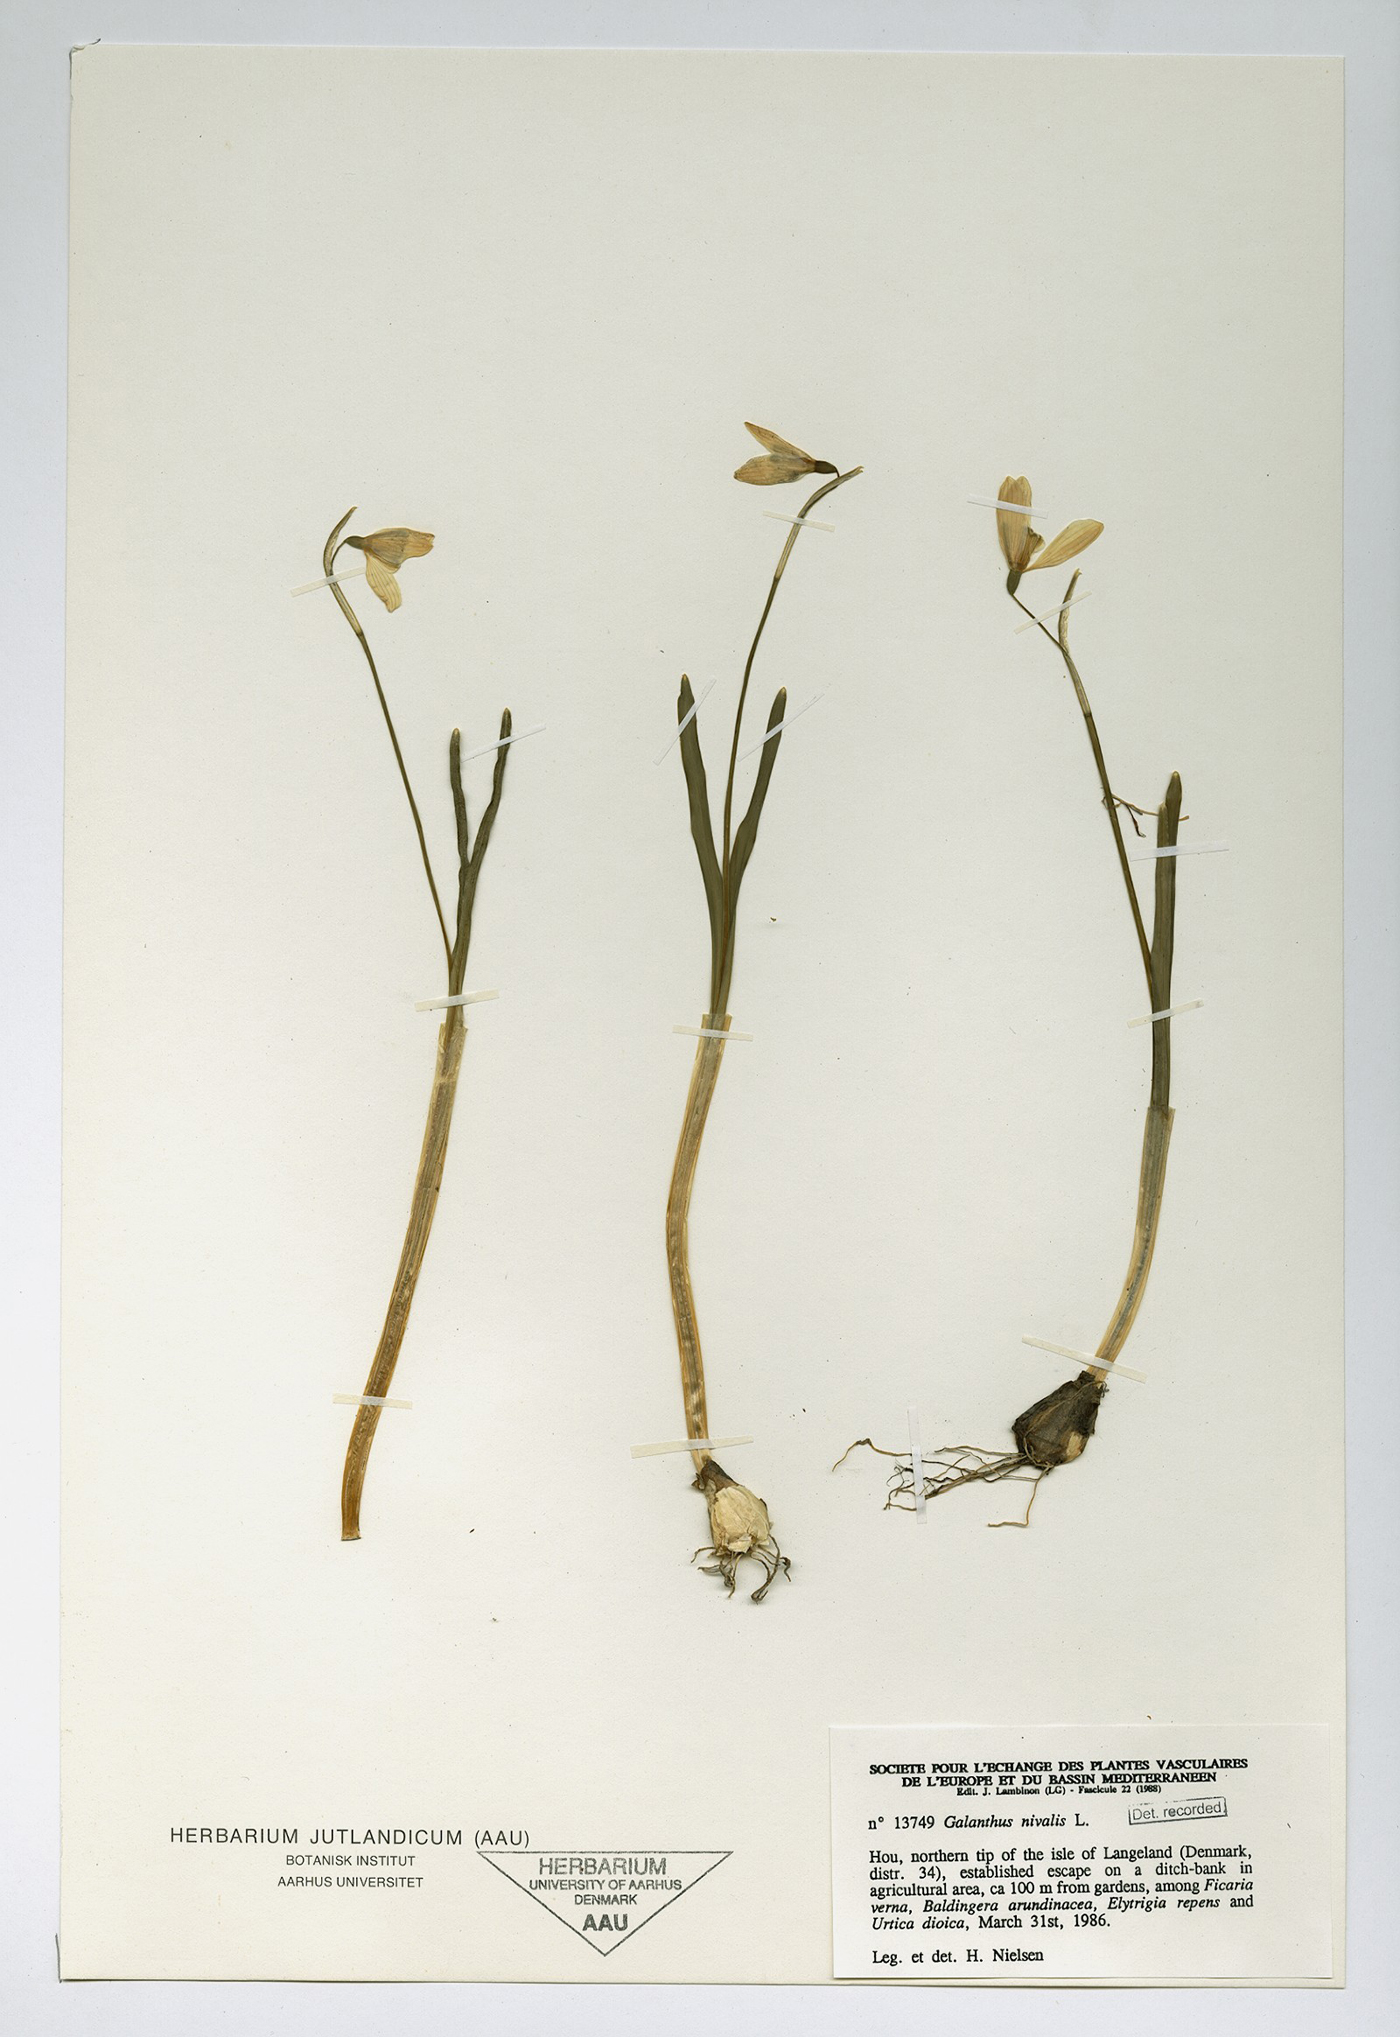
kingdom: Plantae
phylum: Tracheophyta
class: Liliopsida
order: Asparagales
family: Amaryllidaceae
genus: Galanthus
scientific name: Galanthus nivalis
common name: Snowdrop
